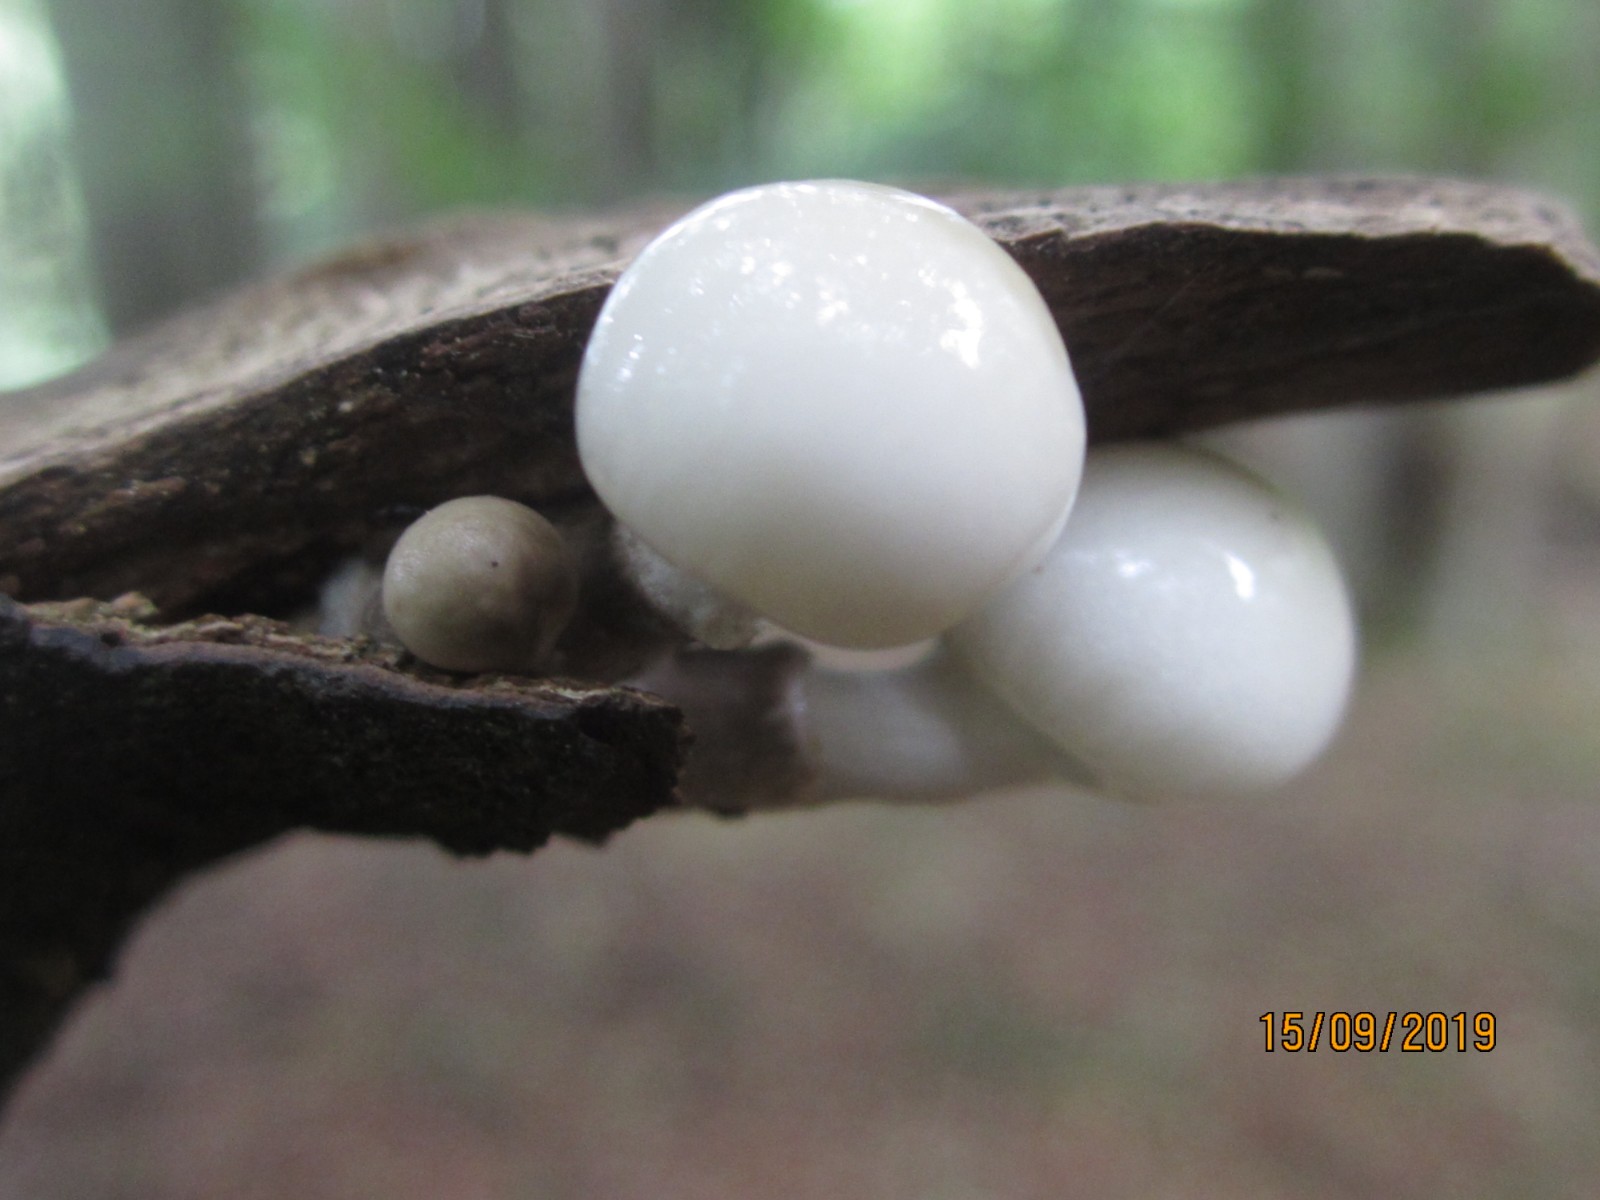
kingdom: Fungi
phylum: Basidiomycota
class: Agaricomycetes
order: Agaricales
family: Physalacriaceae
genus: Mucidula
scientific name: Mucidula mucida
